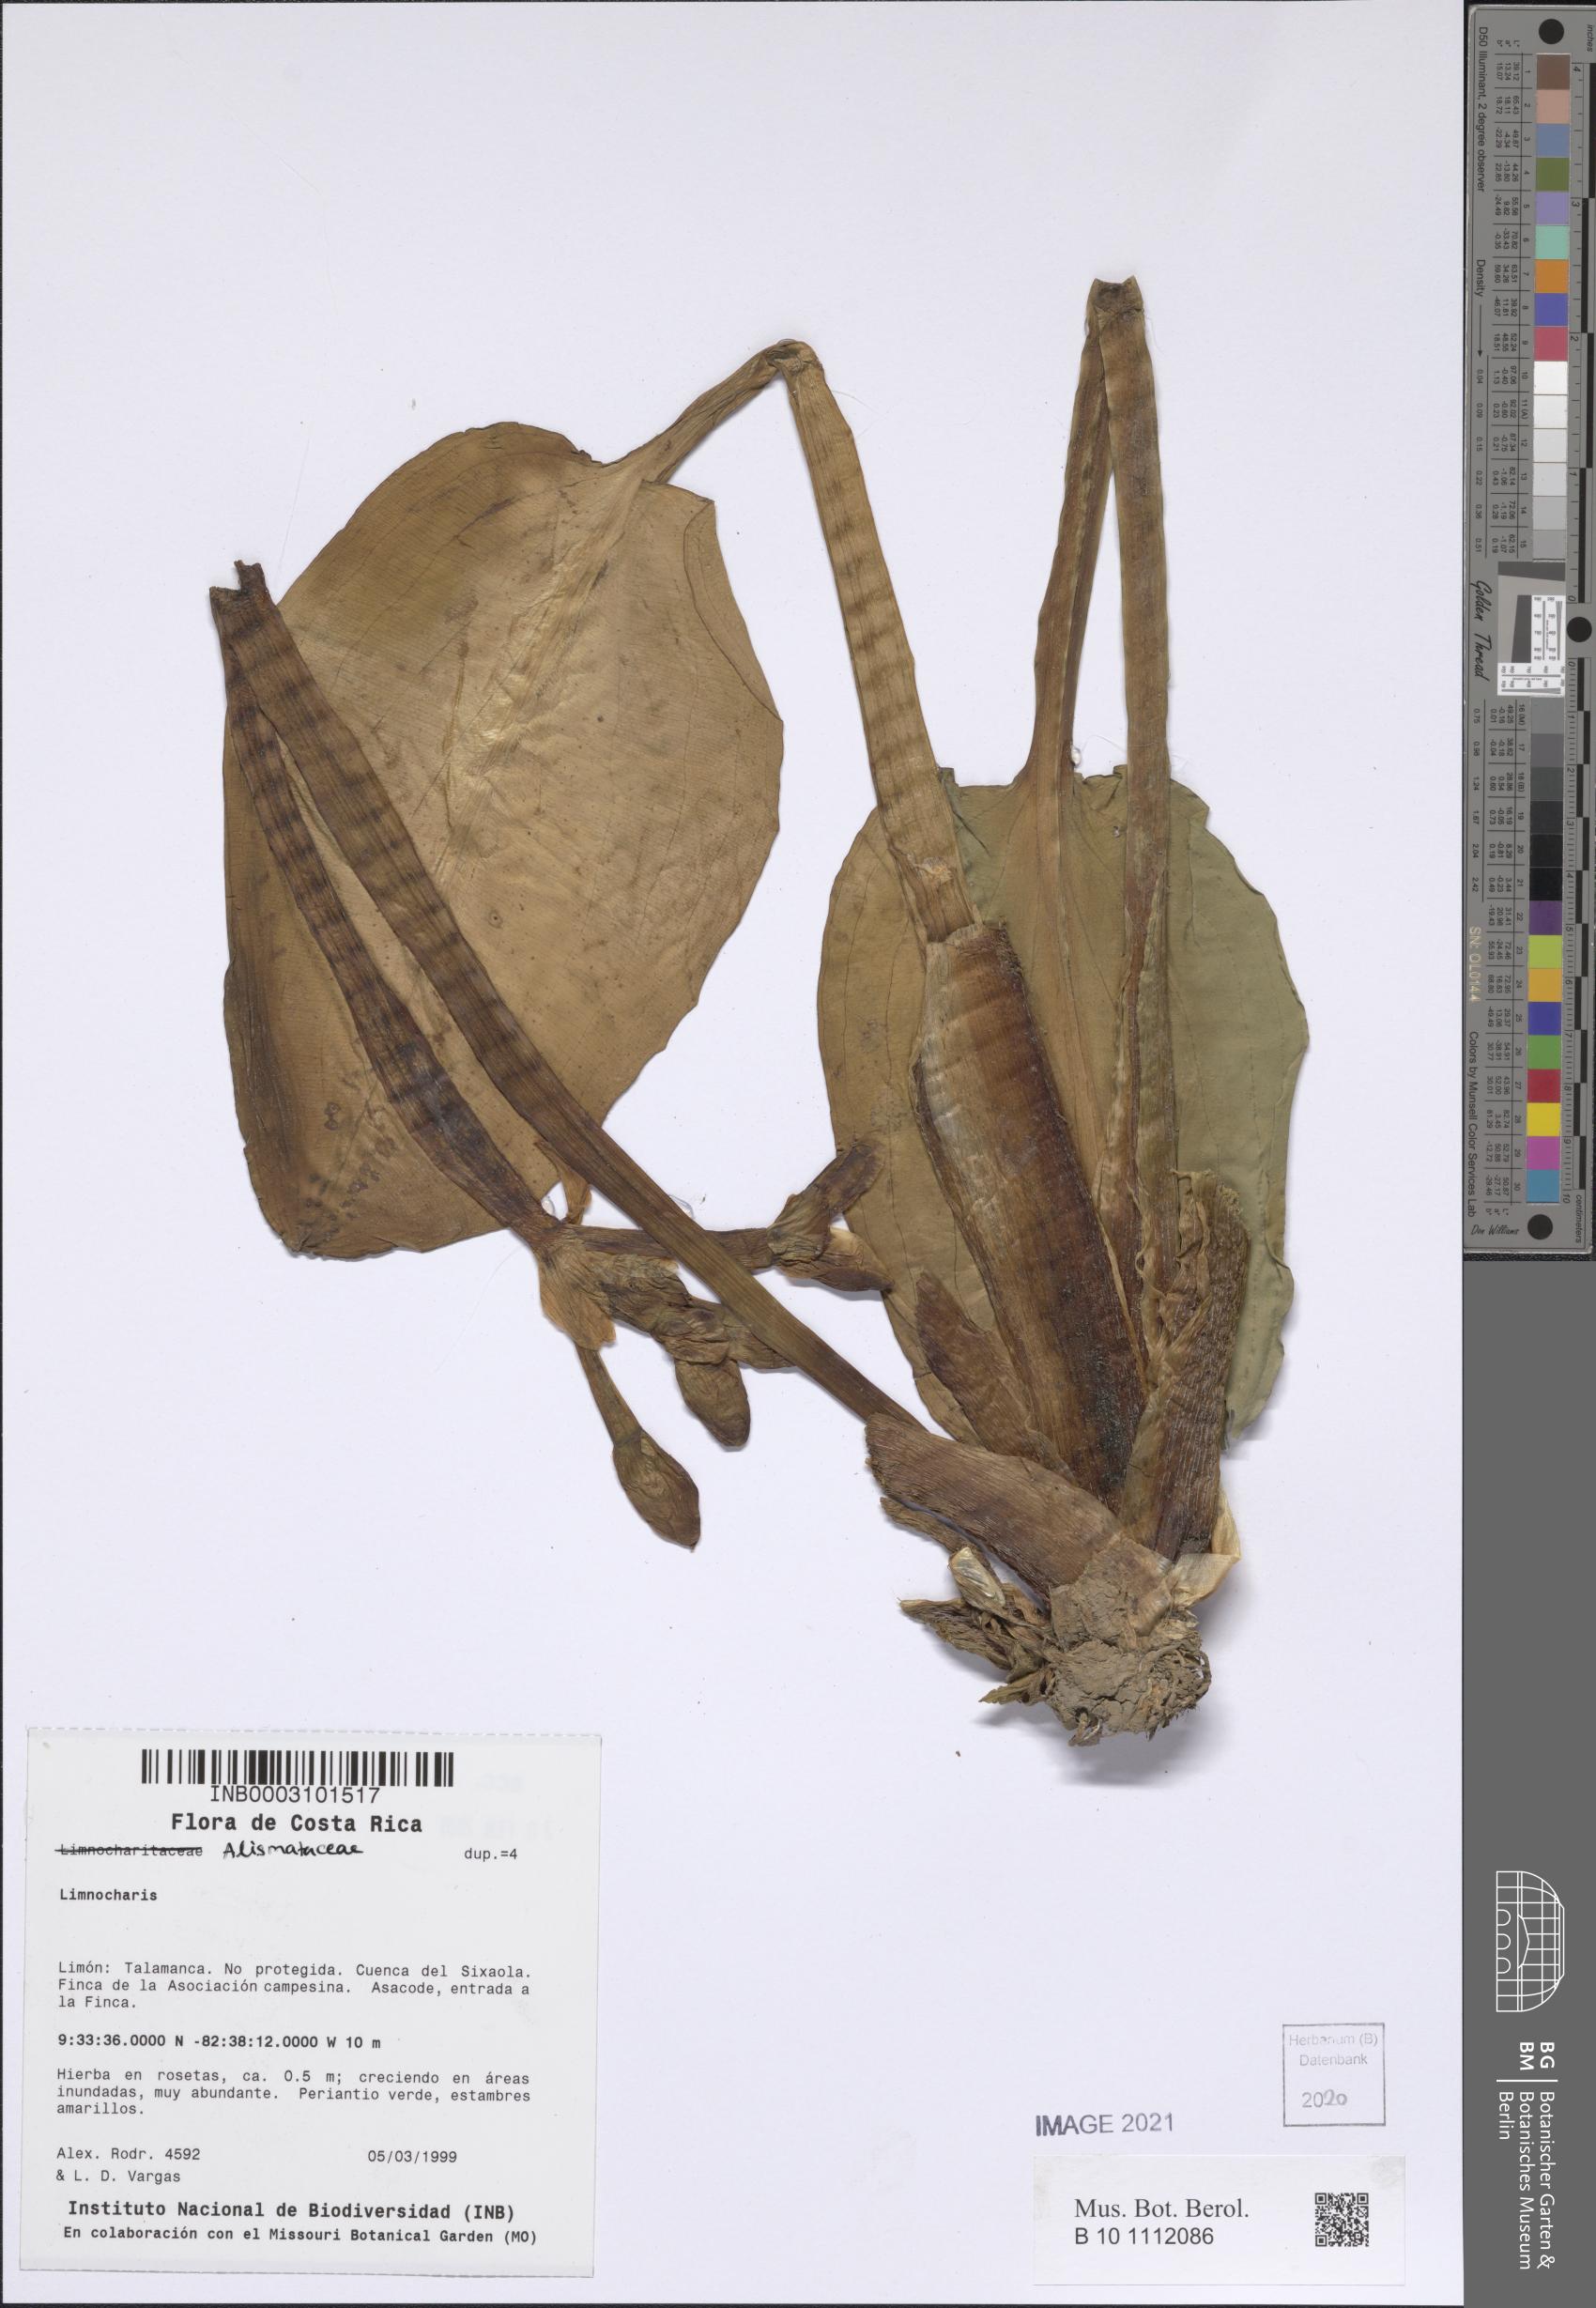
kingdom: Plantae
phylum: Tracheophyta
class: Liliopsida
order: Alismatales
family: Alismataceae
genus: Limnocharis
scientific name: Limnocharis
